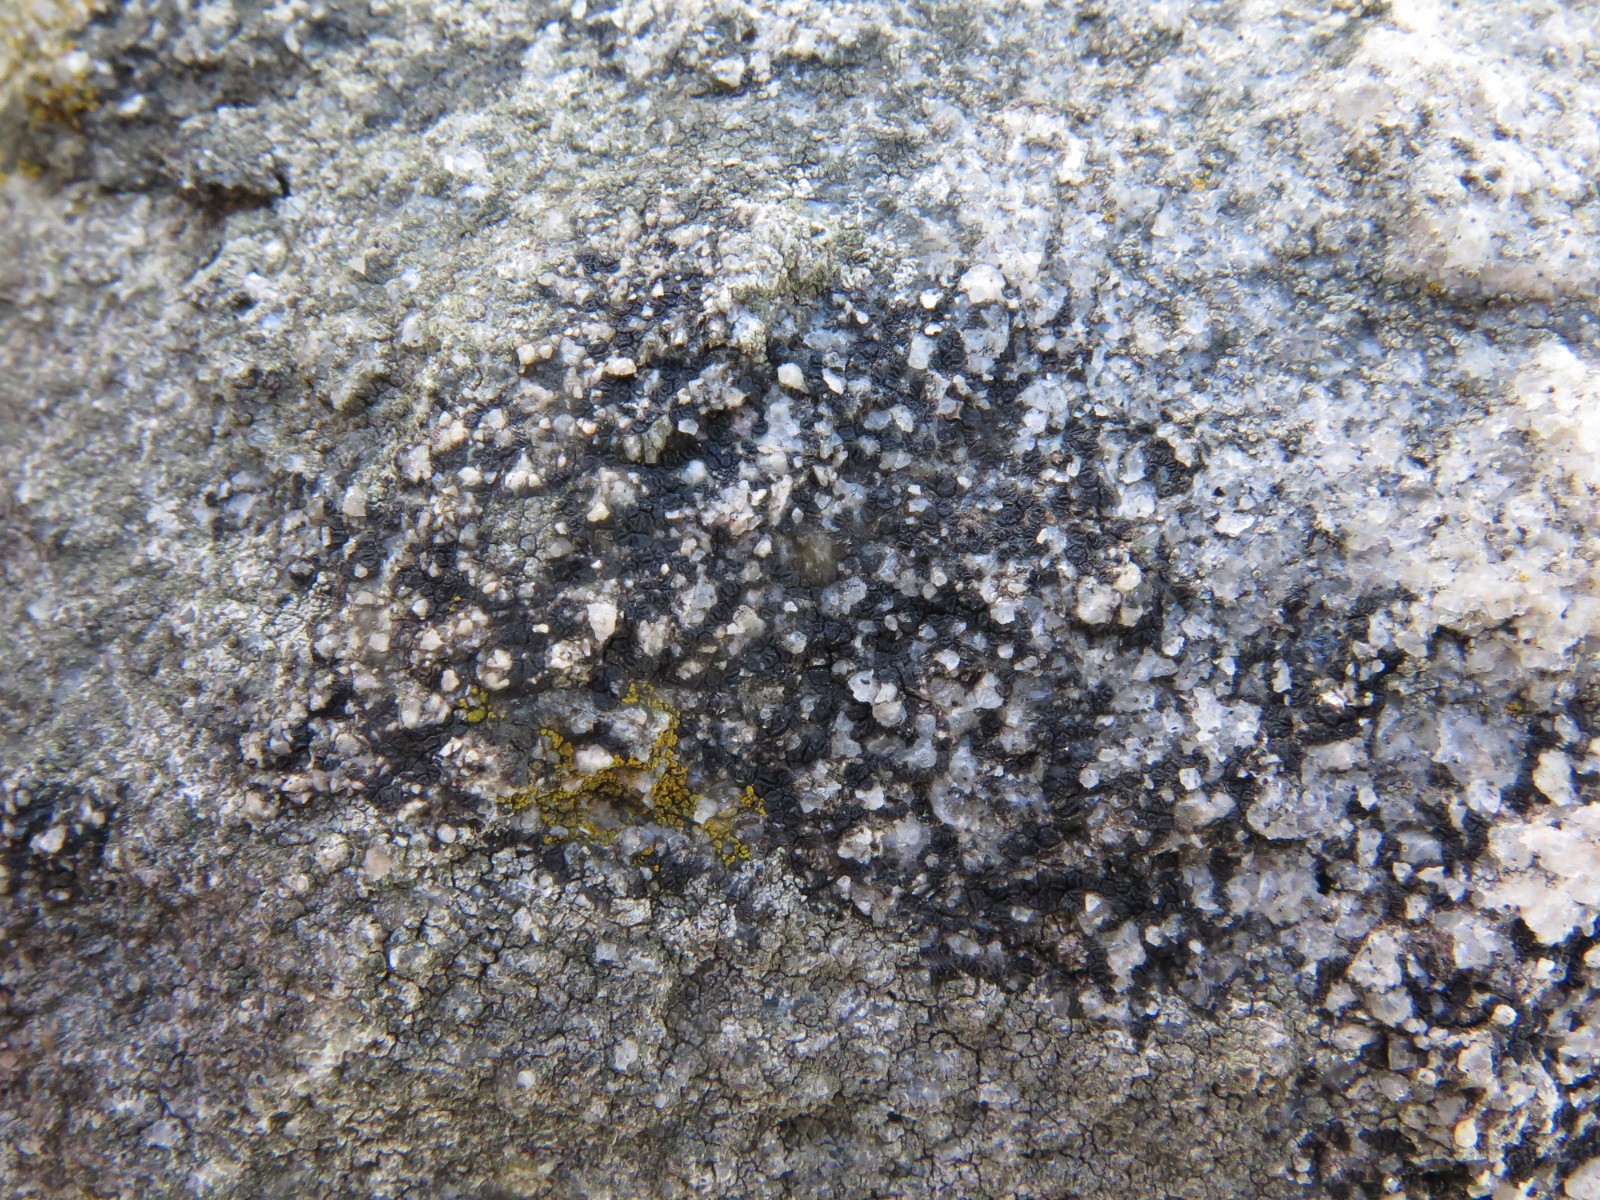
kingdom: Fungi
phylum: Ascomycota
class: Lecanoromycetes
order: Acarosporales
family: Acarosporaceae
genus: Acarospora
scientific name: Acarospora privigna
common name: sort foldekantlav
